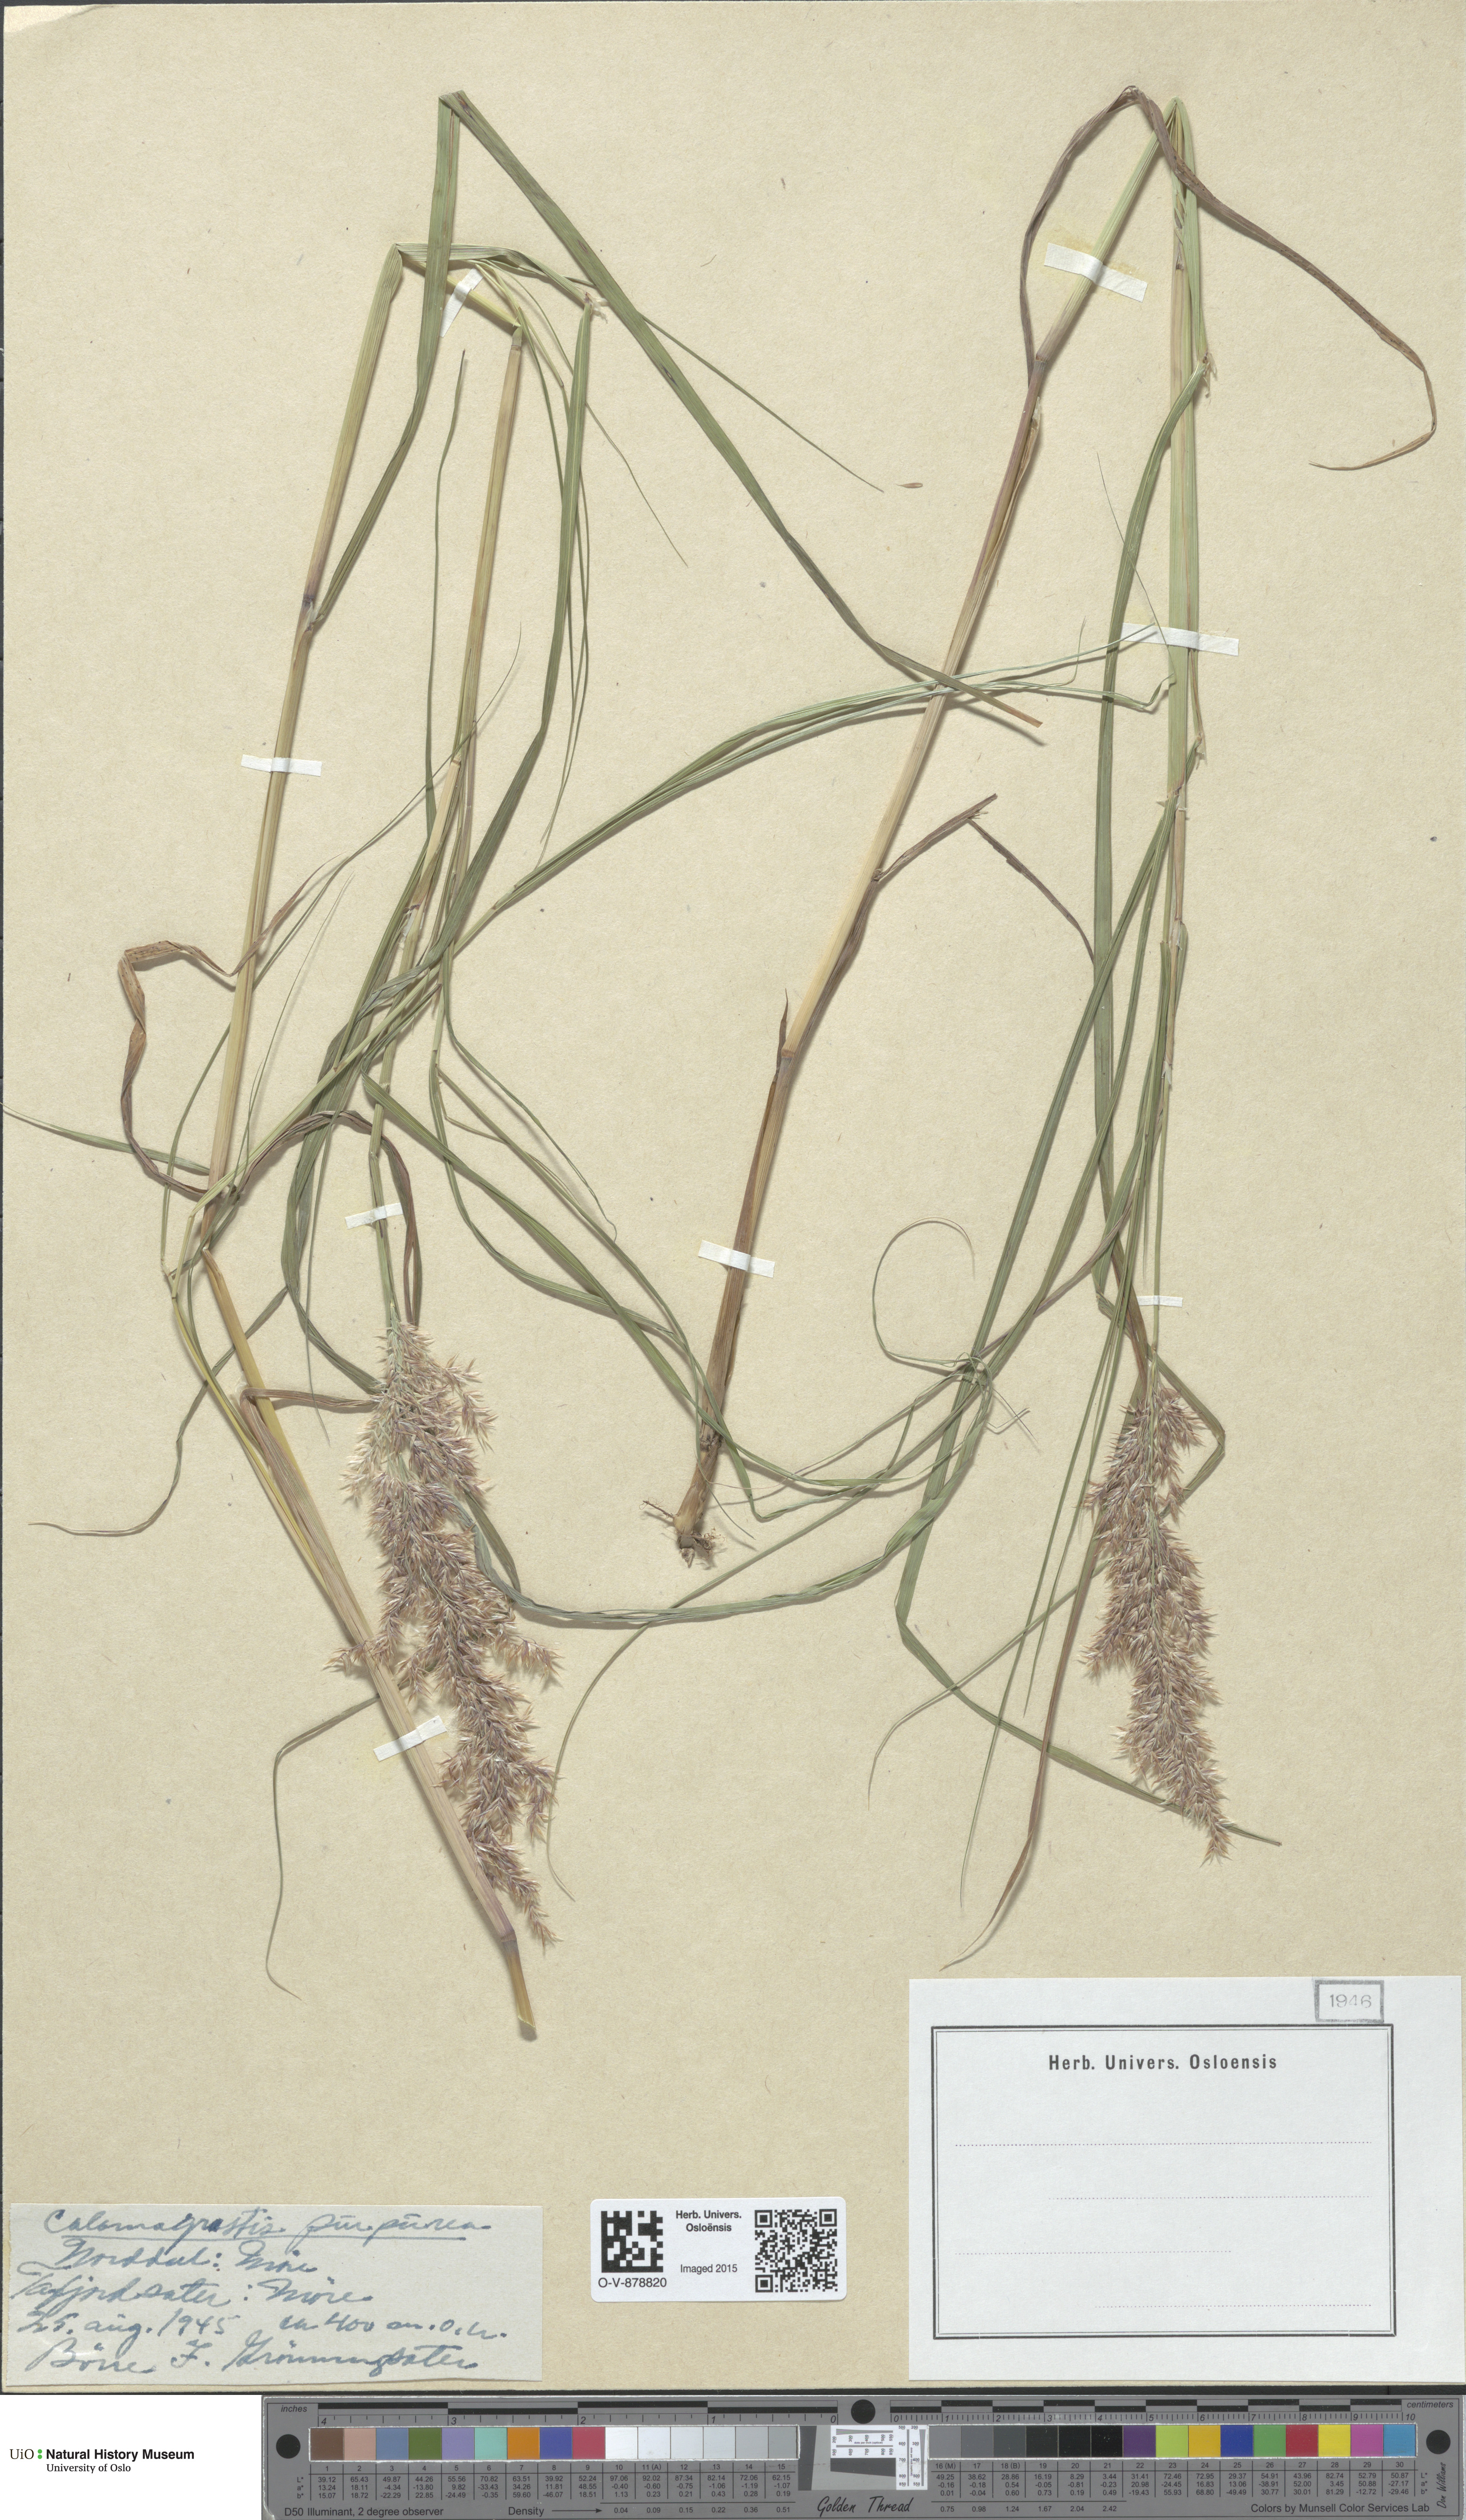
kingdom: Plantae
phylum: Tracheophyta
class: Liliopsida
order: Poales
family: Poaceae
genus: Calamagrostis
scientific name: Calamagrostis purpurea
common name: Scandinavian small-reed
